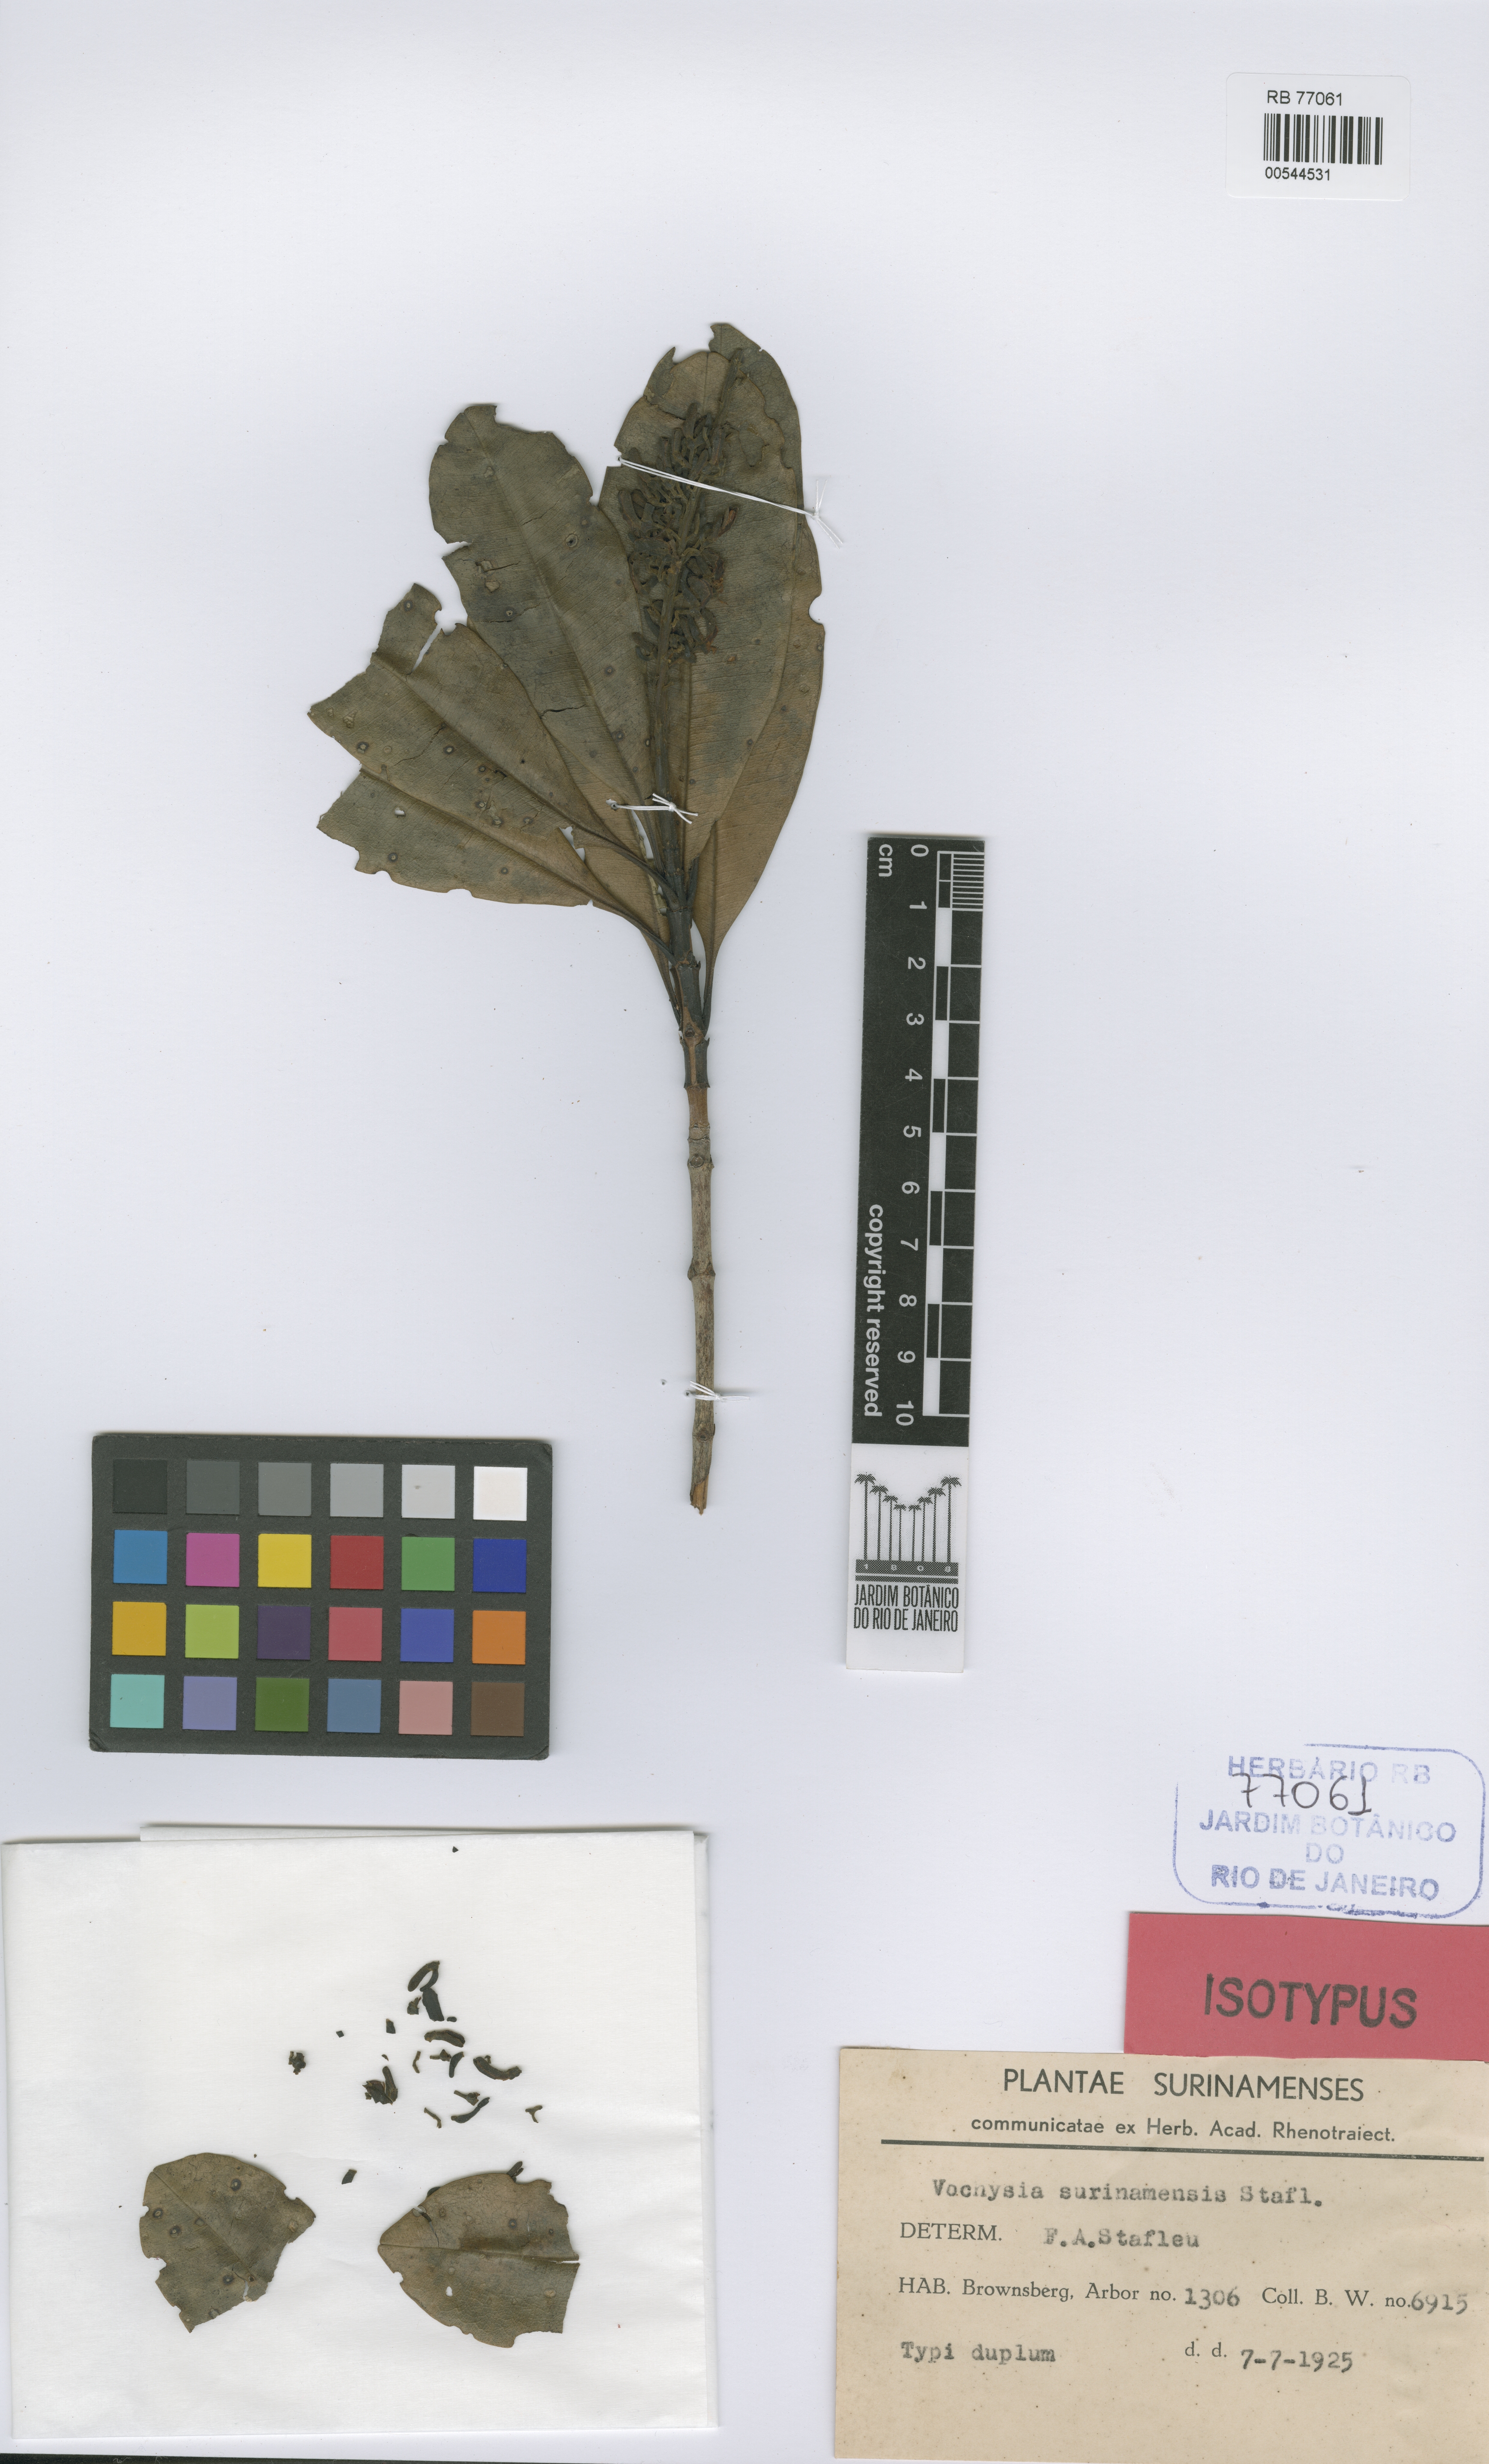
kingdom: Plantae
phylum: Tracheophyta
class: Magnoliopsida
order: Myrtales
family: Vochysiaceae
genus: Vochysia
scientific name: Vochysia surinamensis
